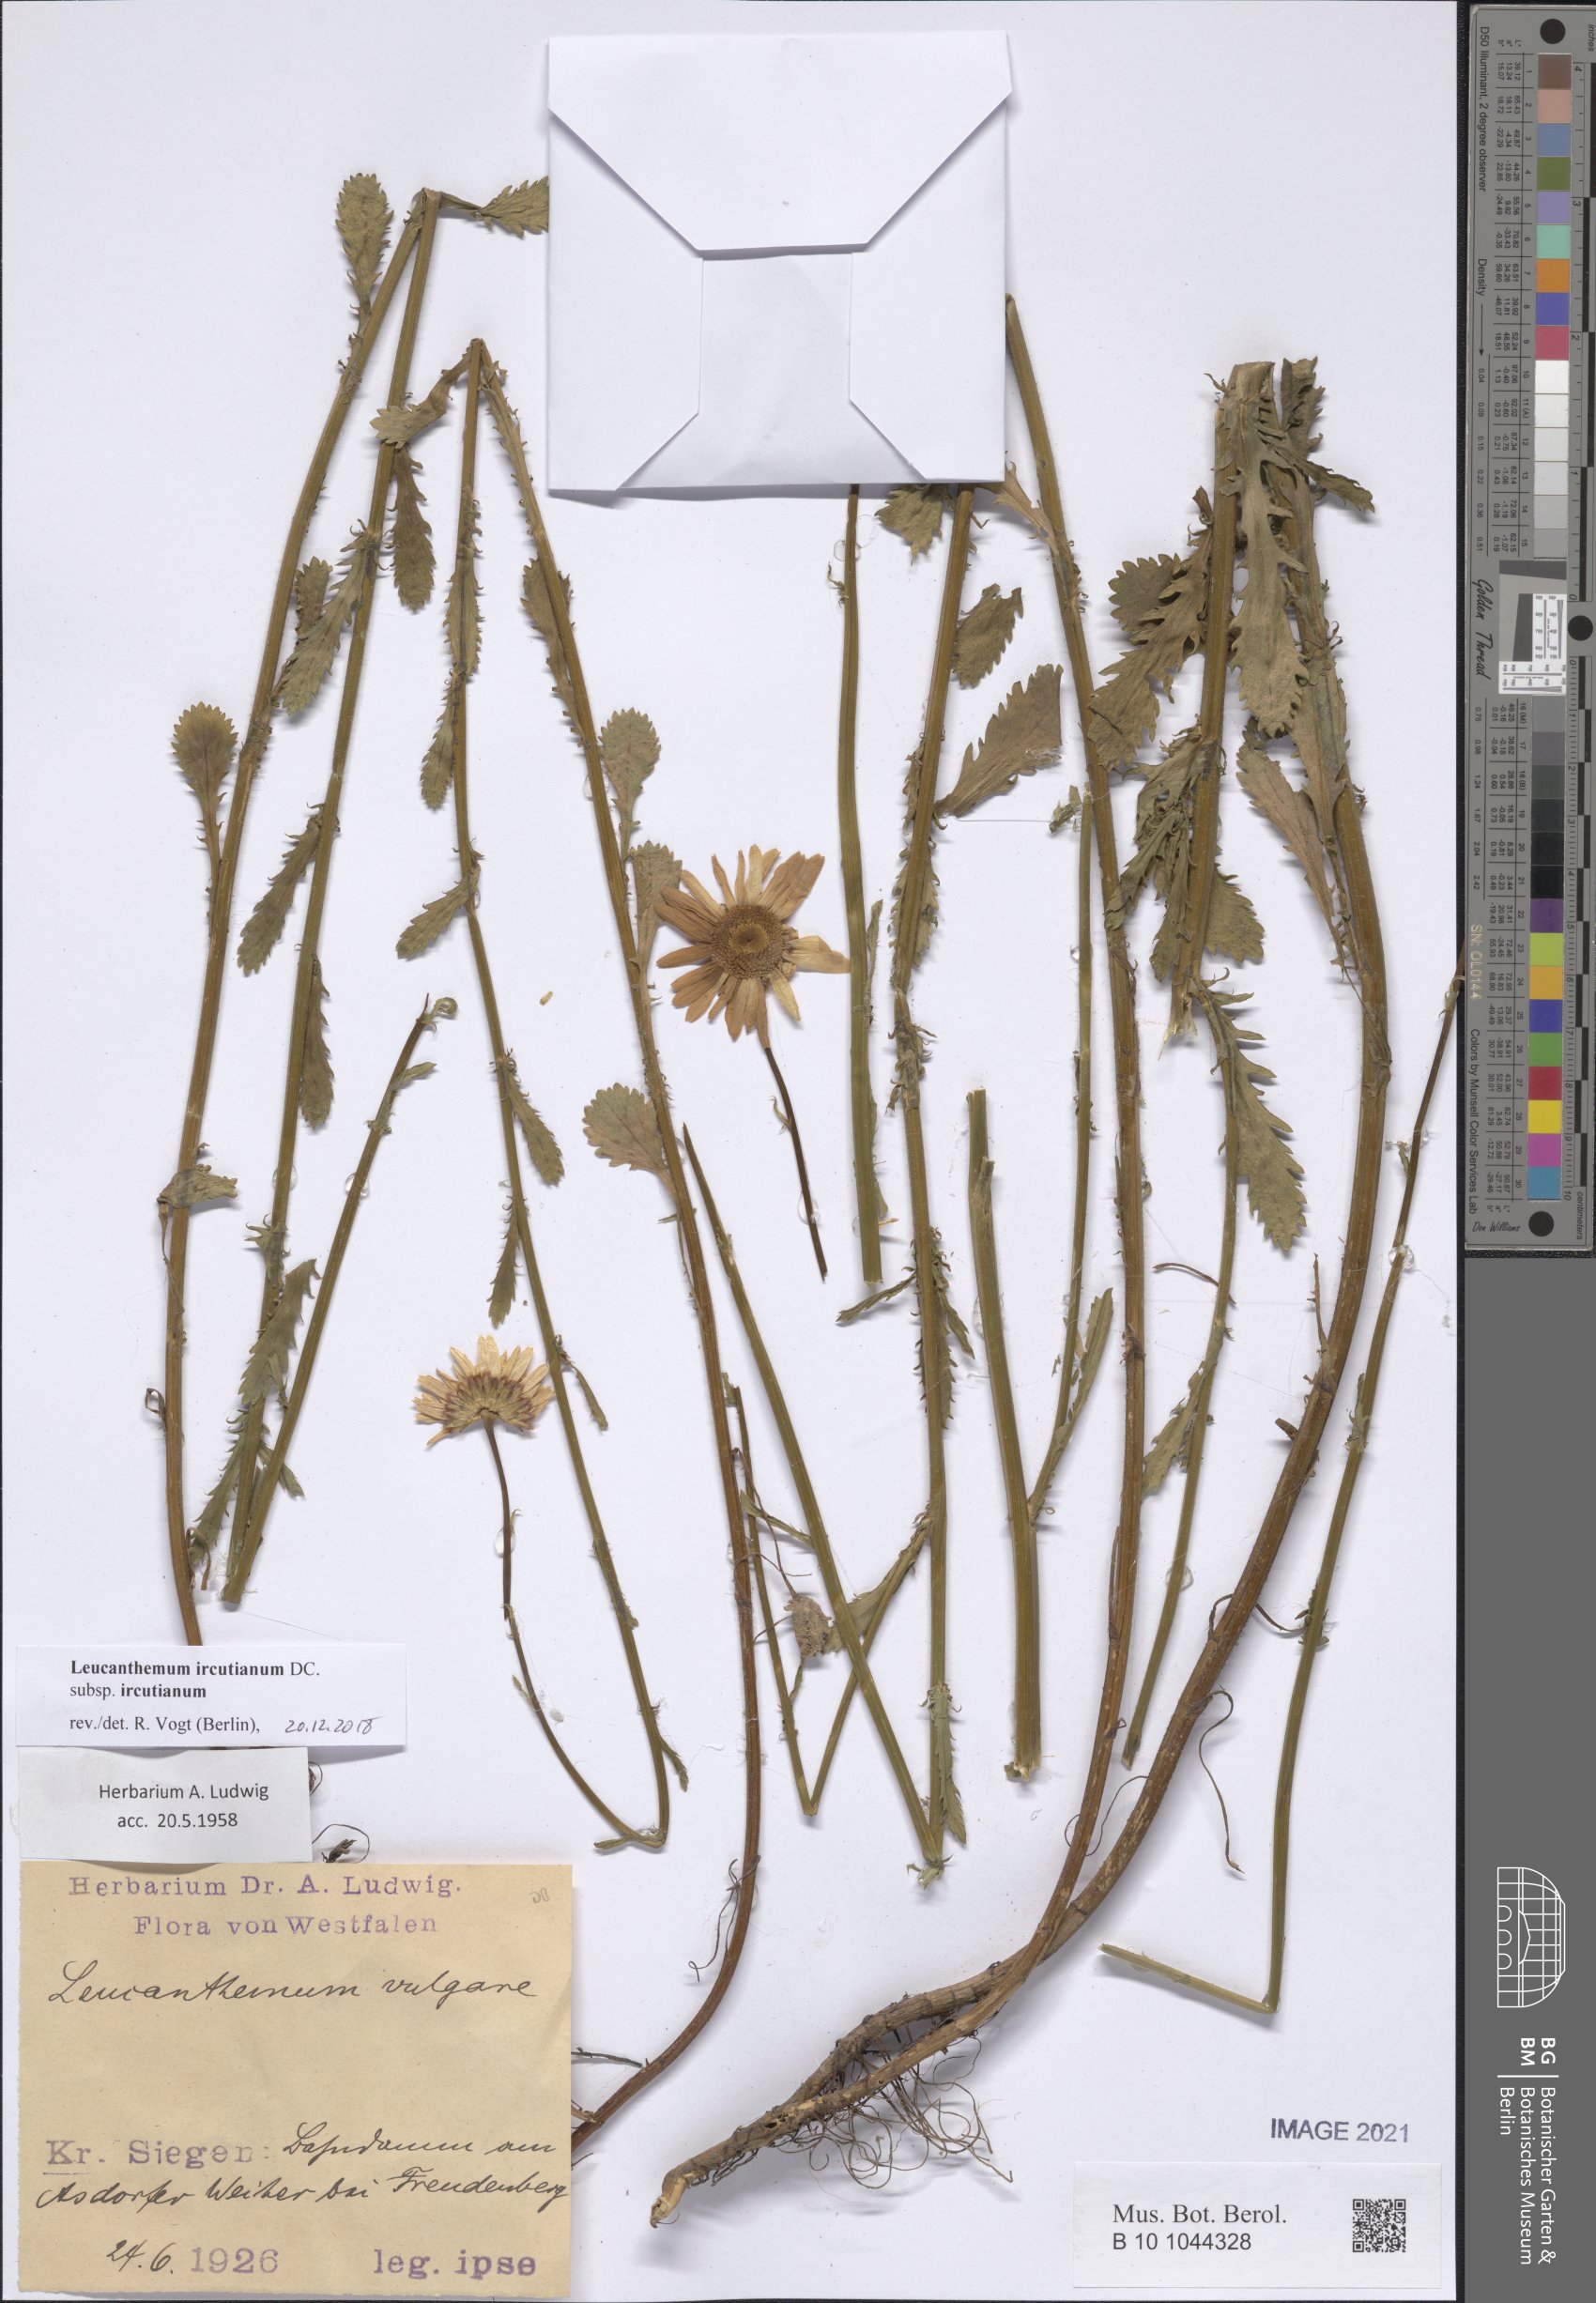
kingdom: Plantae
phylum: Tracheophyta
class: Magnoliopsida
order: Asterales
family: Asteraceae
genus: Leucanthemum
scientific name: Leucanthemum ircutianum
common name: Daisy
